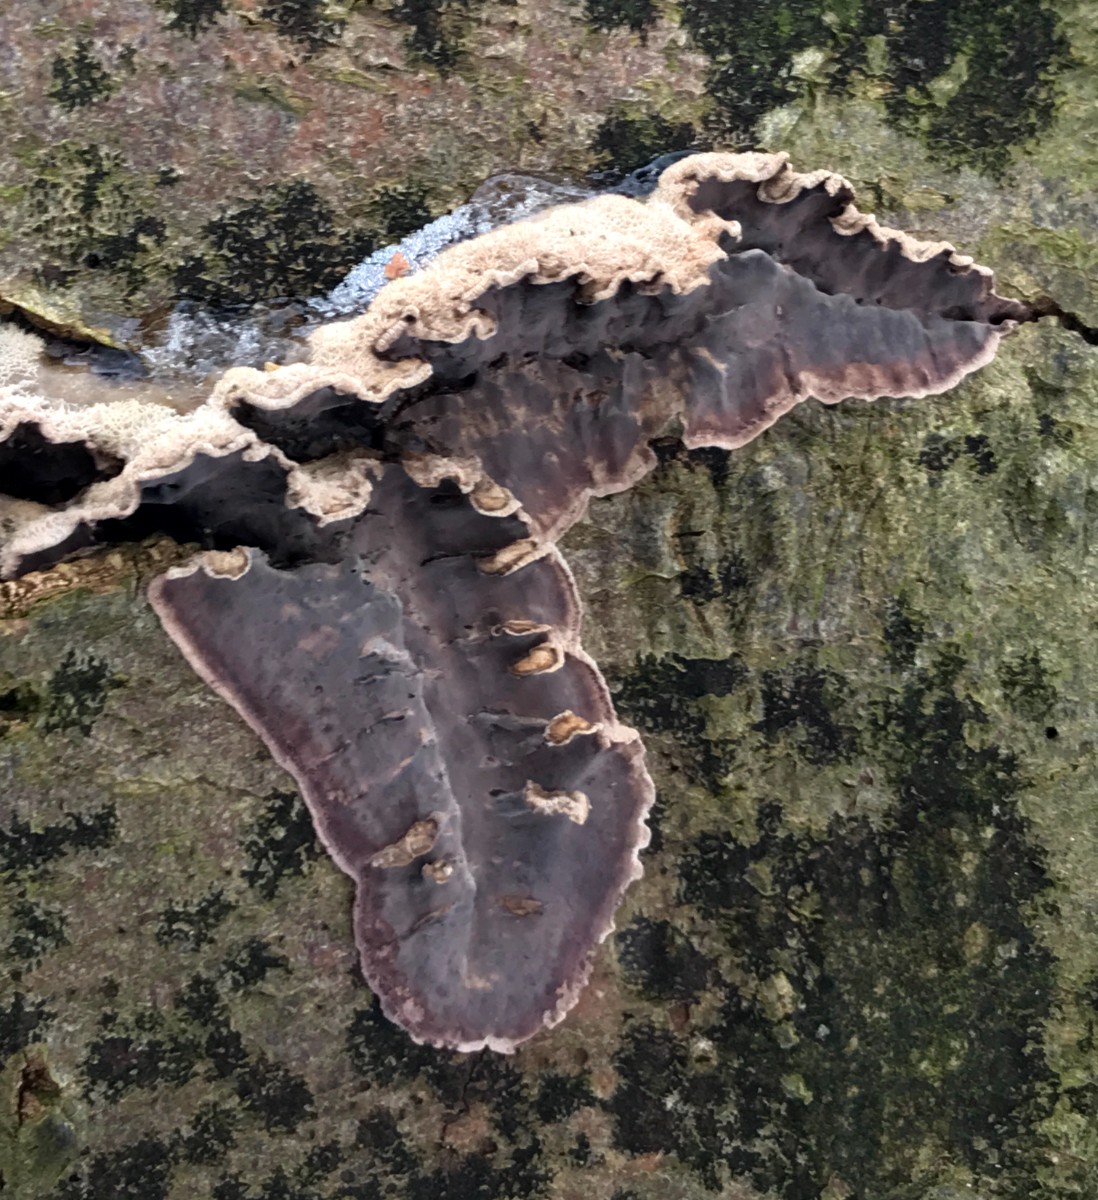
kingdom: Fungi
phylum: Basidiomycota
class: Agaricomycetes
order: Agaricales
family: Cyphellaceae
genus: Chondrostereum
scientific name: Chondrostereum purpureum
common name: purpurlædersvamp
